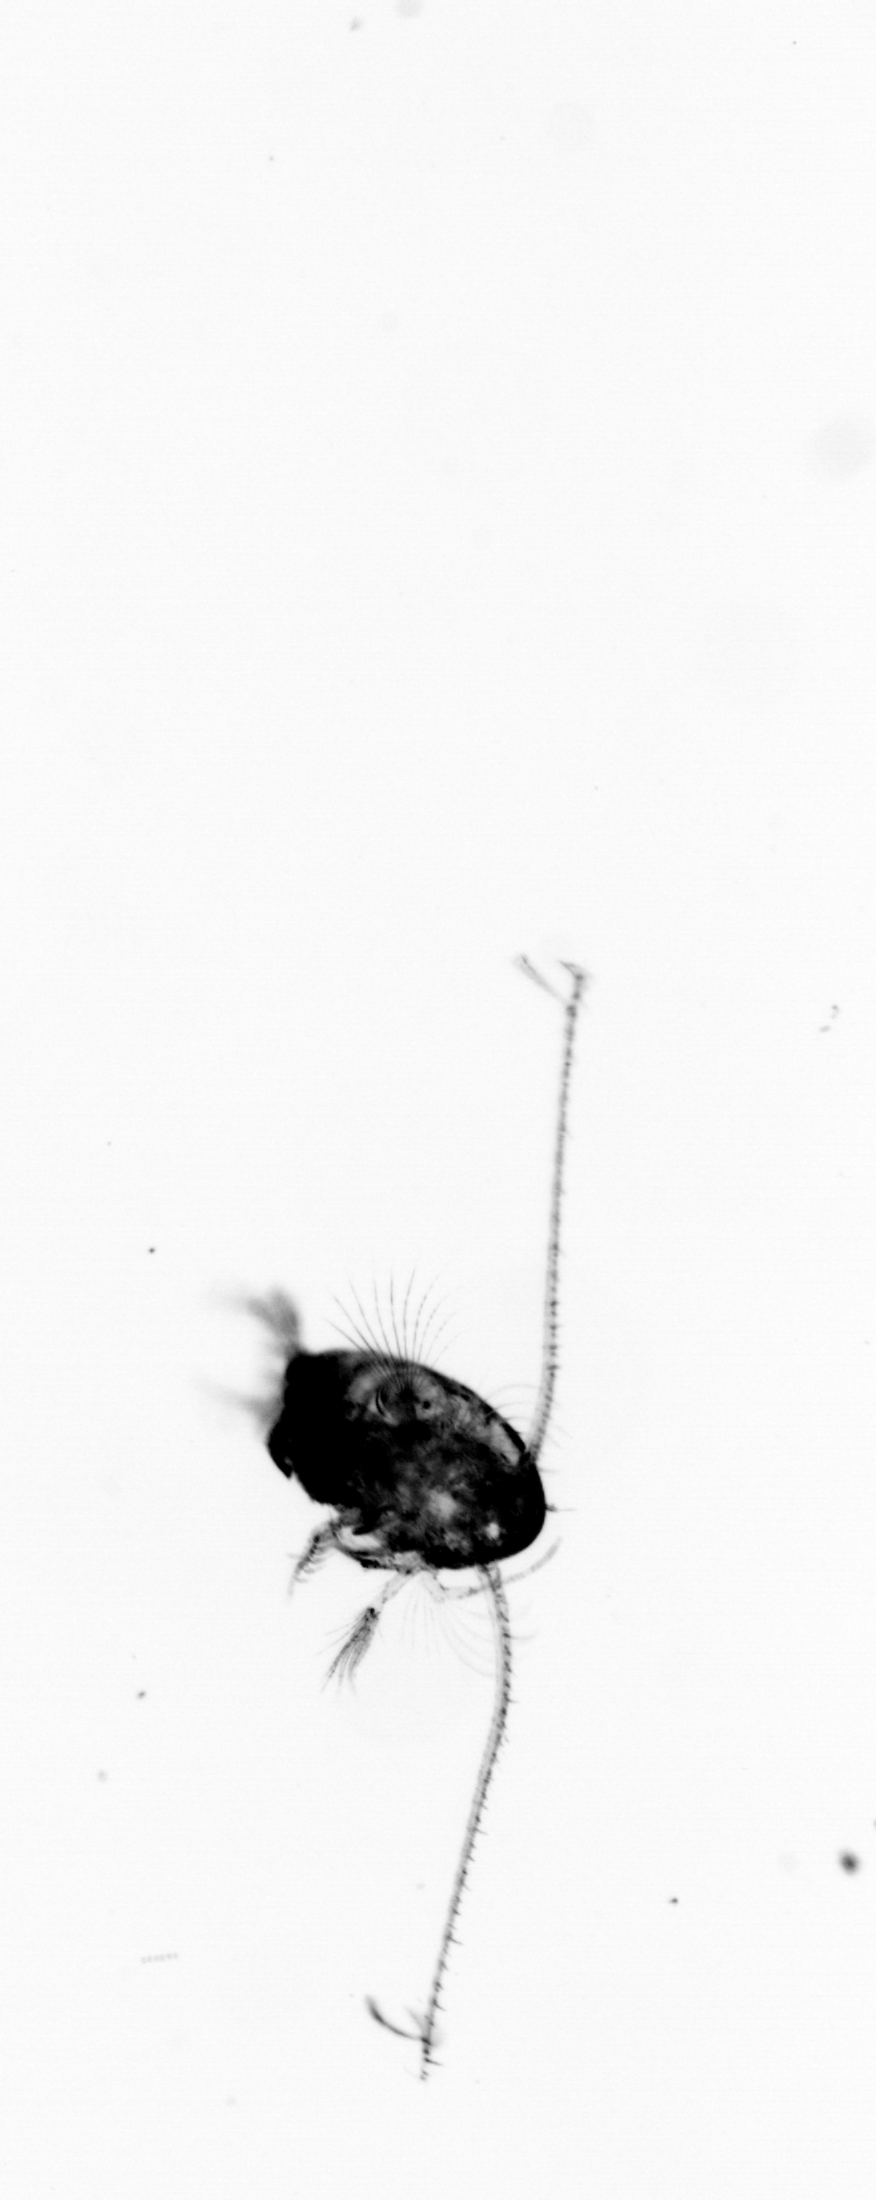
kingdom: Animalia
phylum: Arthropoda
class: Copepoda
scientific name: Copepoda
